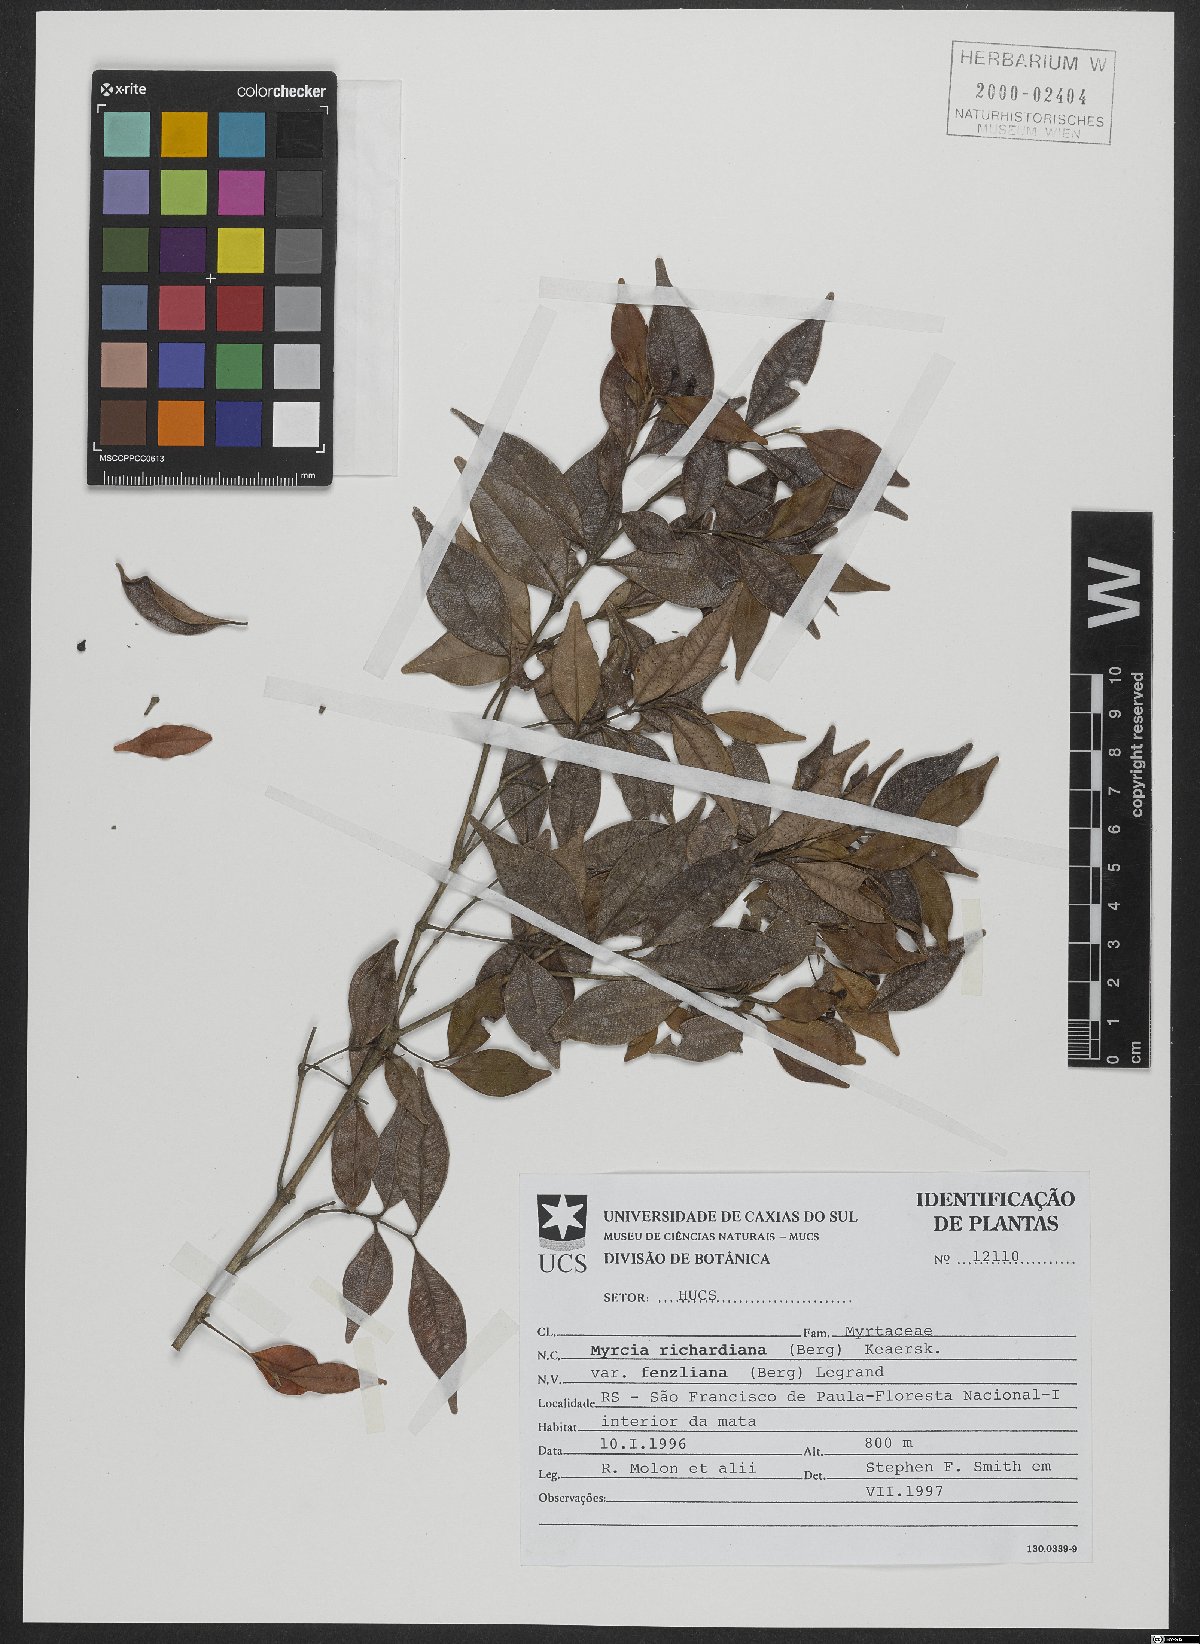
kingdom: Plantae
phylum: Tracheophyta
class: Magnoliopsida
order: Myrtales
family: Myrtaceae
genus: Myrcia
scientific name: Myrcia richardiana
